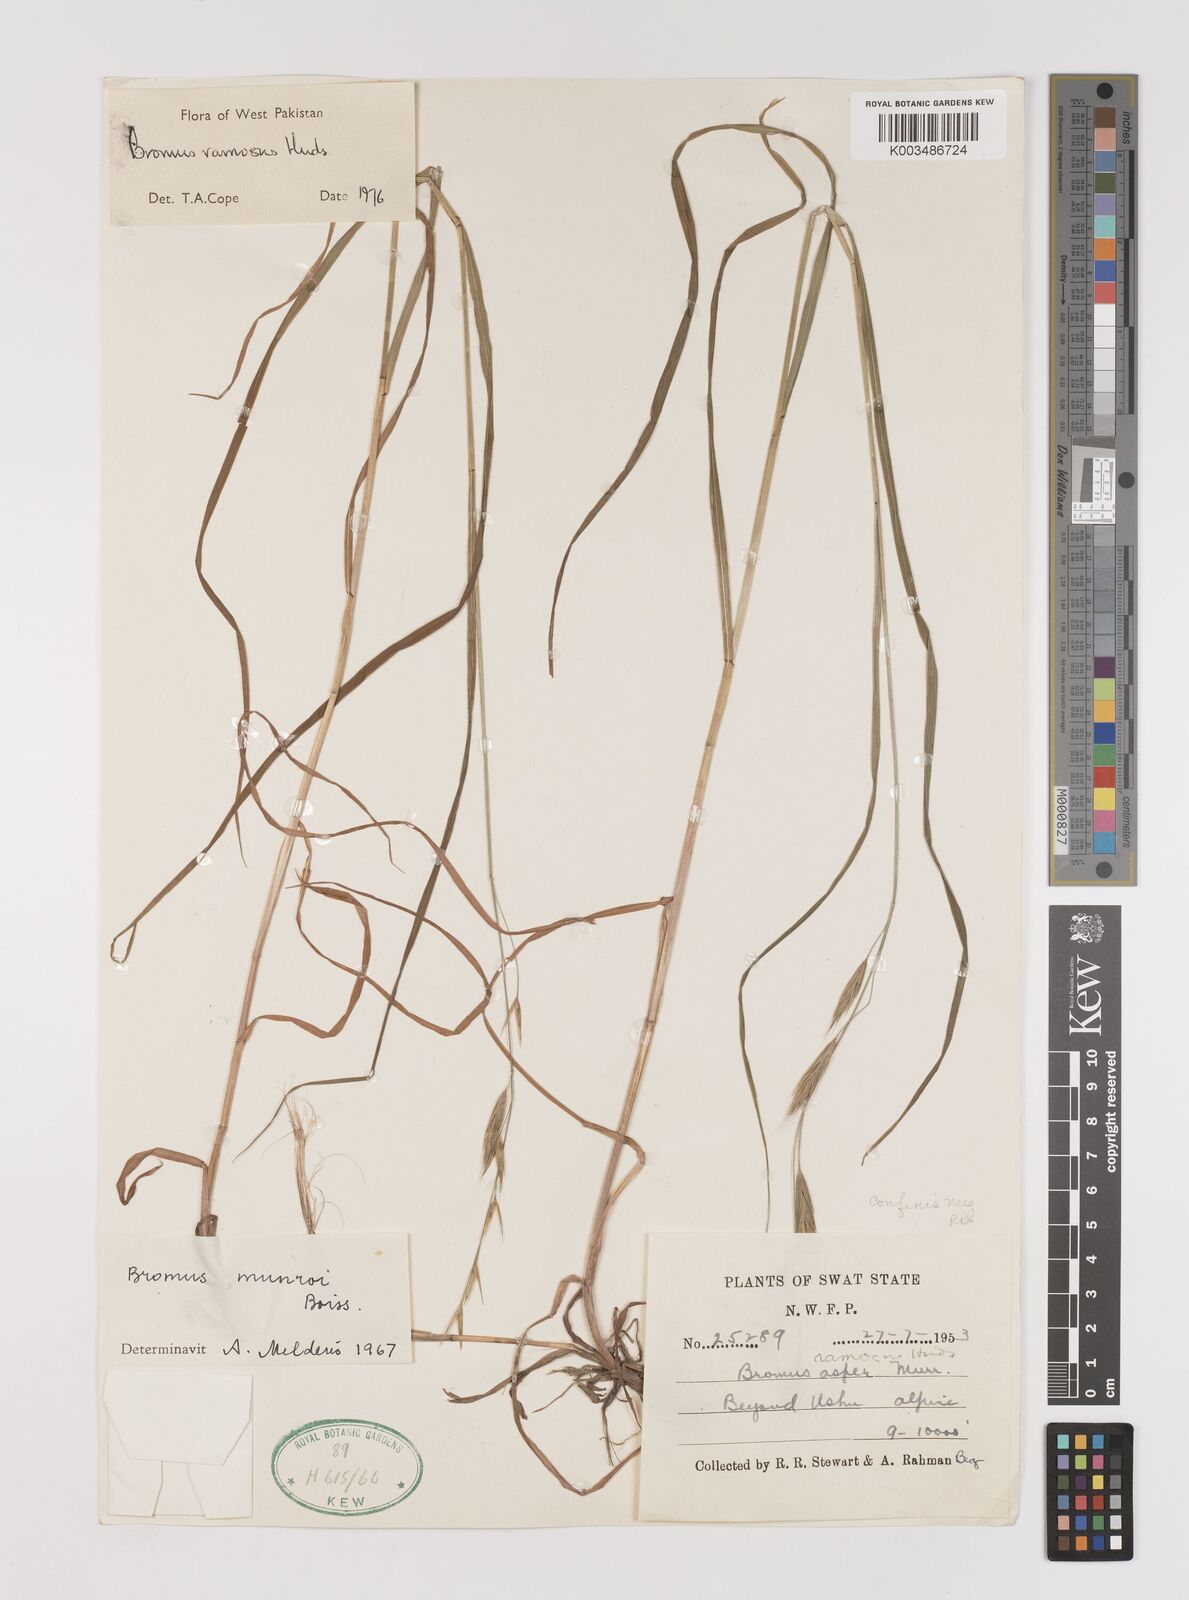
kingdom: Plantae
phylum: Tracheophyta
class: Liliopsida
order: Poales
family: Poaceae
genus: Brachypodium
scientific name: Brachypodium retusum
